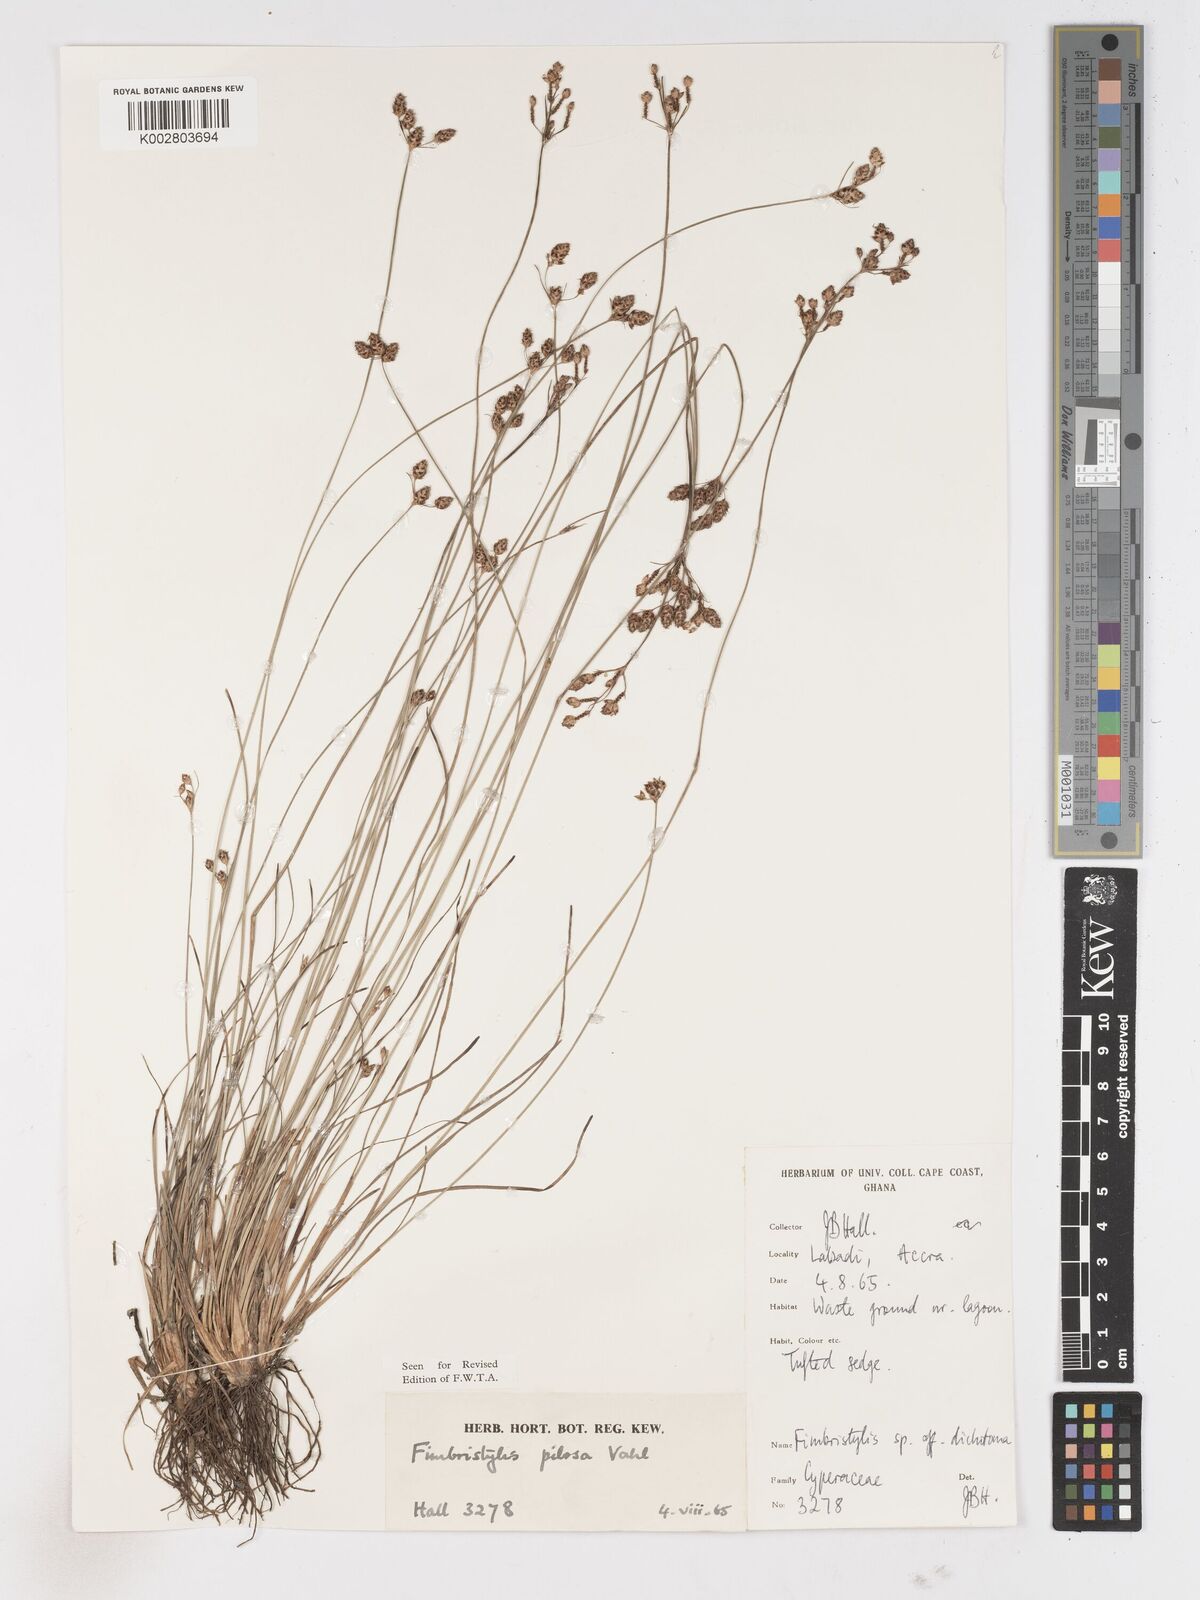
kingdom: Plantae
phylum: Tracheophyta
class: Liliopsida
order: Poales
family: Cyperaceae
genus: Fimbristylis
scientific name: Fimbristylis pilosa
